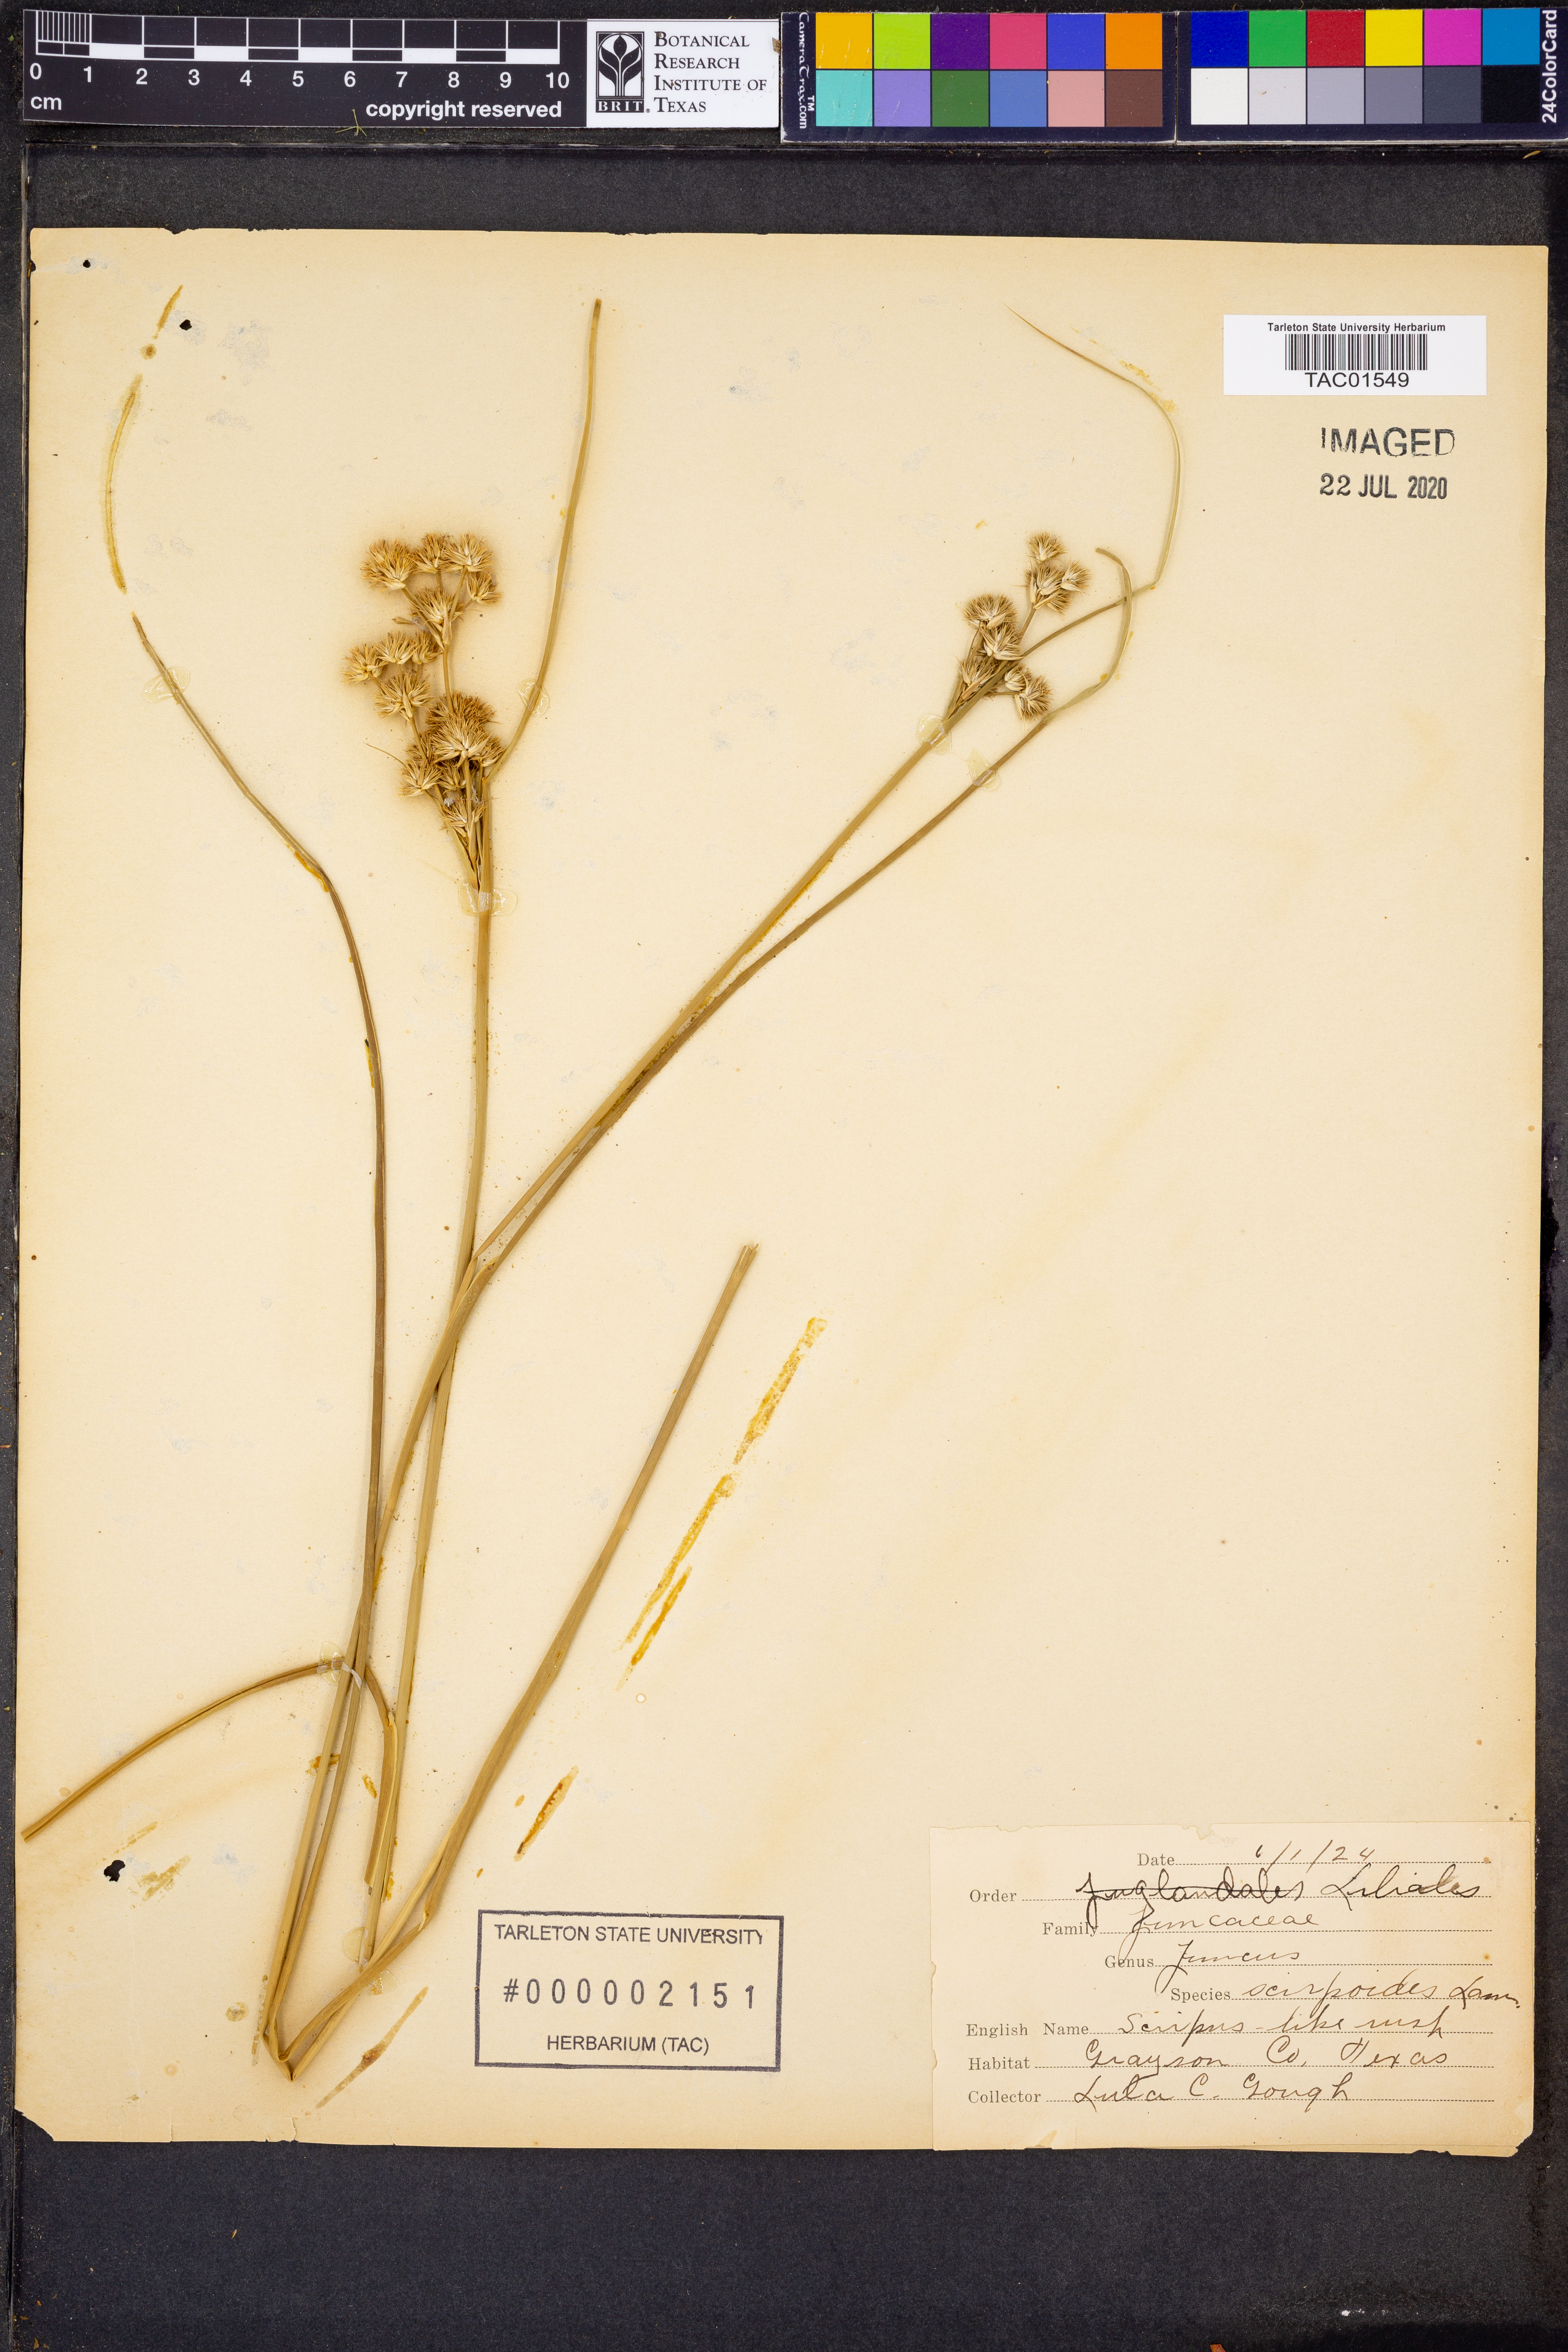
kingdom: Plantae
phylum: Tracheophyta
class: Liliopsida
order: Poales
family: Juncaceae
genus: Juncus
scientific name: Juncus scirpoides
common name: Needlepod rush
